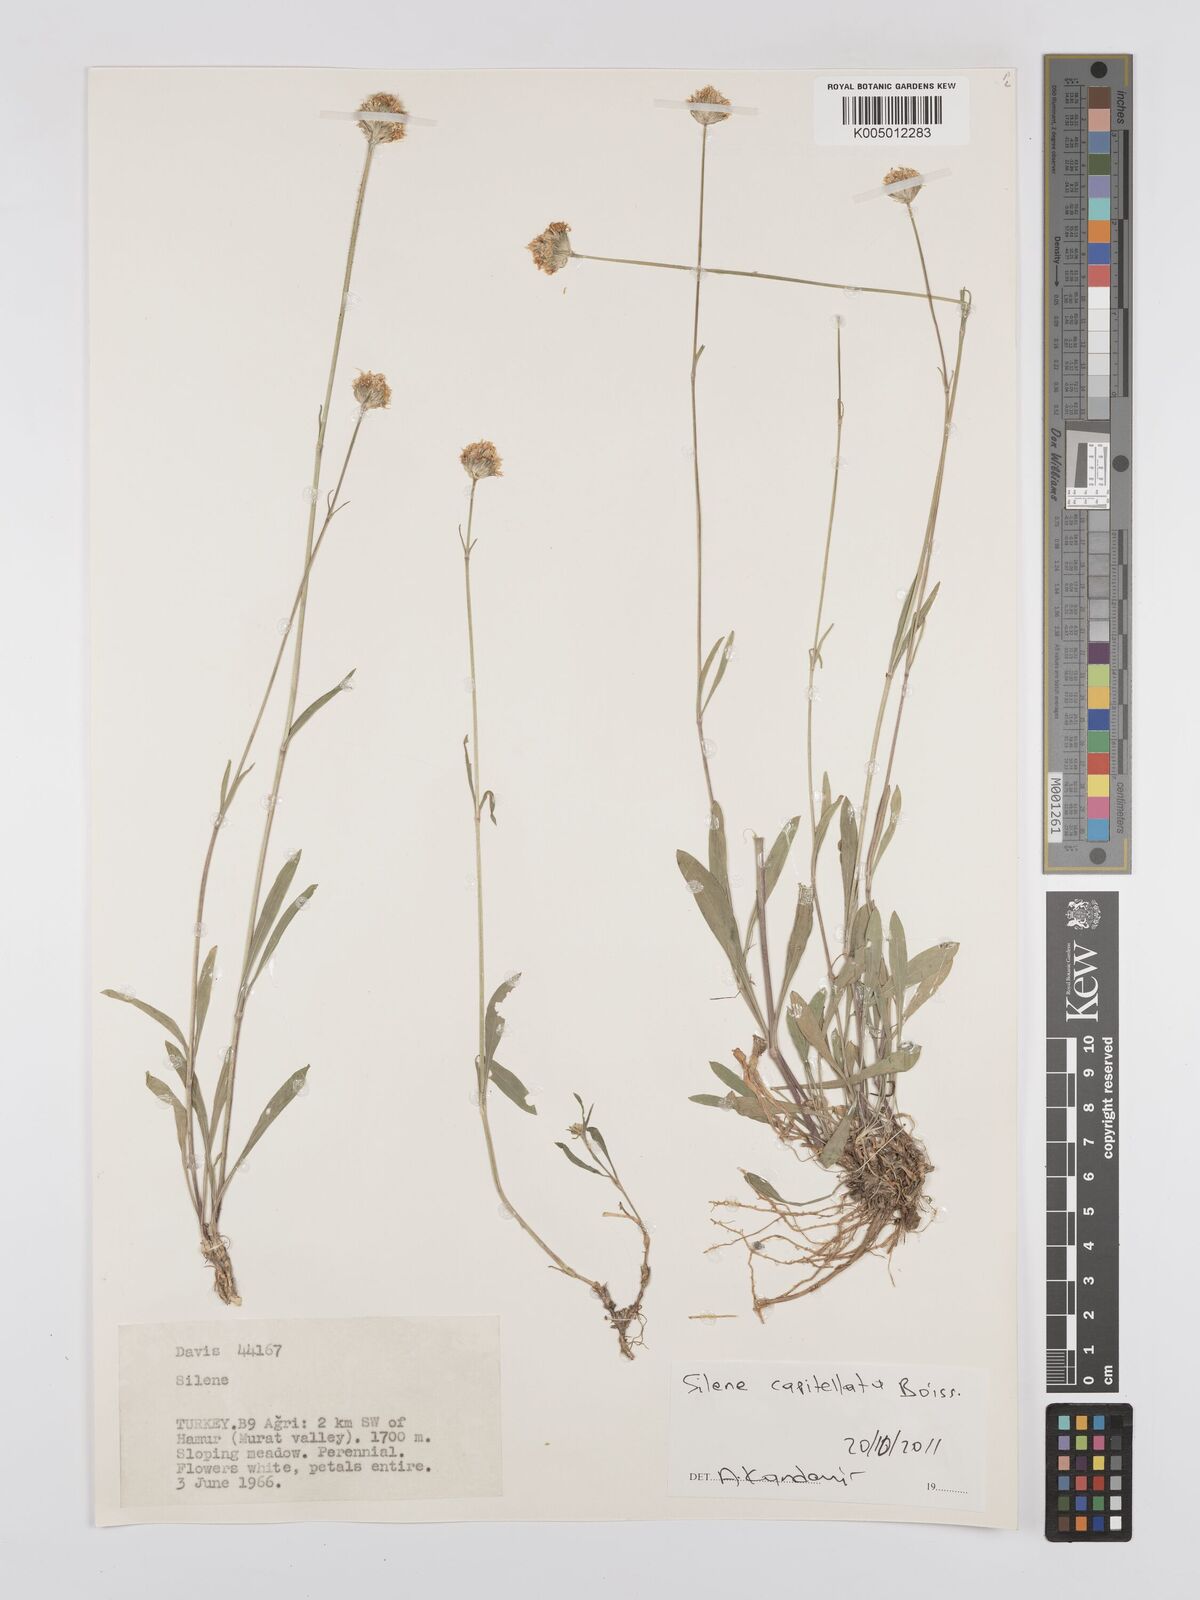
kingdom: Plantae
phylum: Tracheophyta
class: Magnoliopsida
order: Caryophyllales
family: Caryophyllaceae
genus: Silene
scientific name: Silene capitellata
